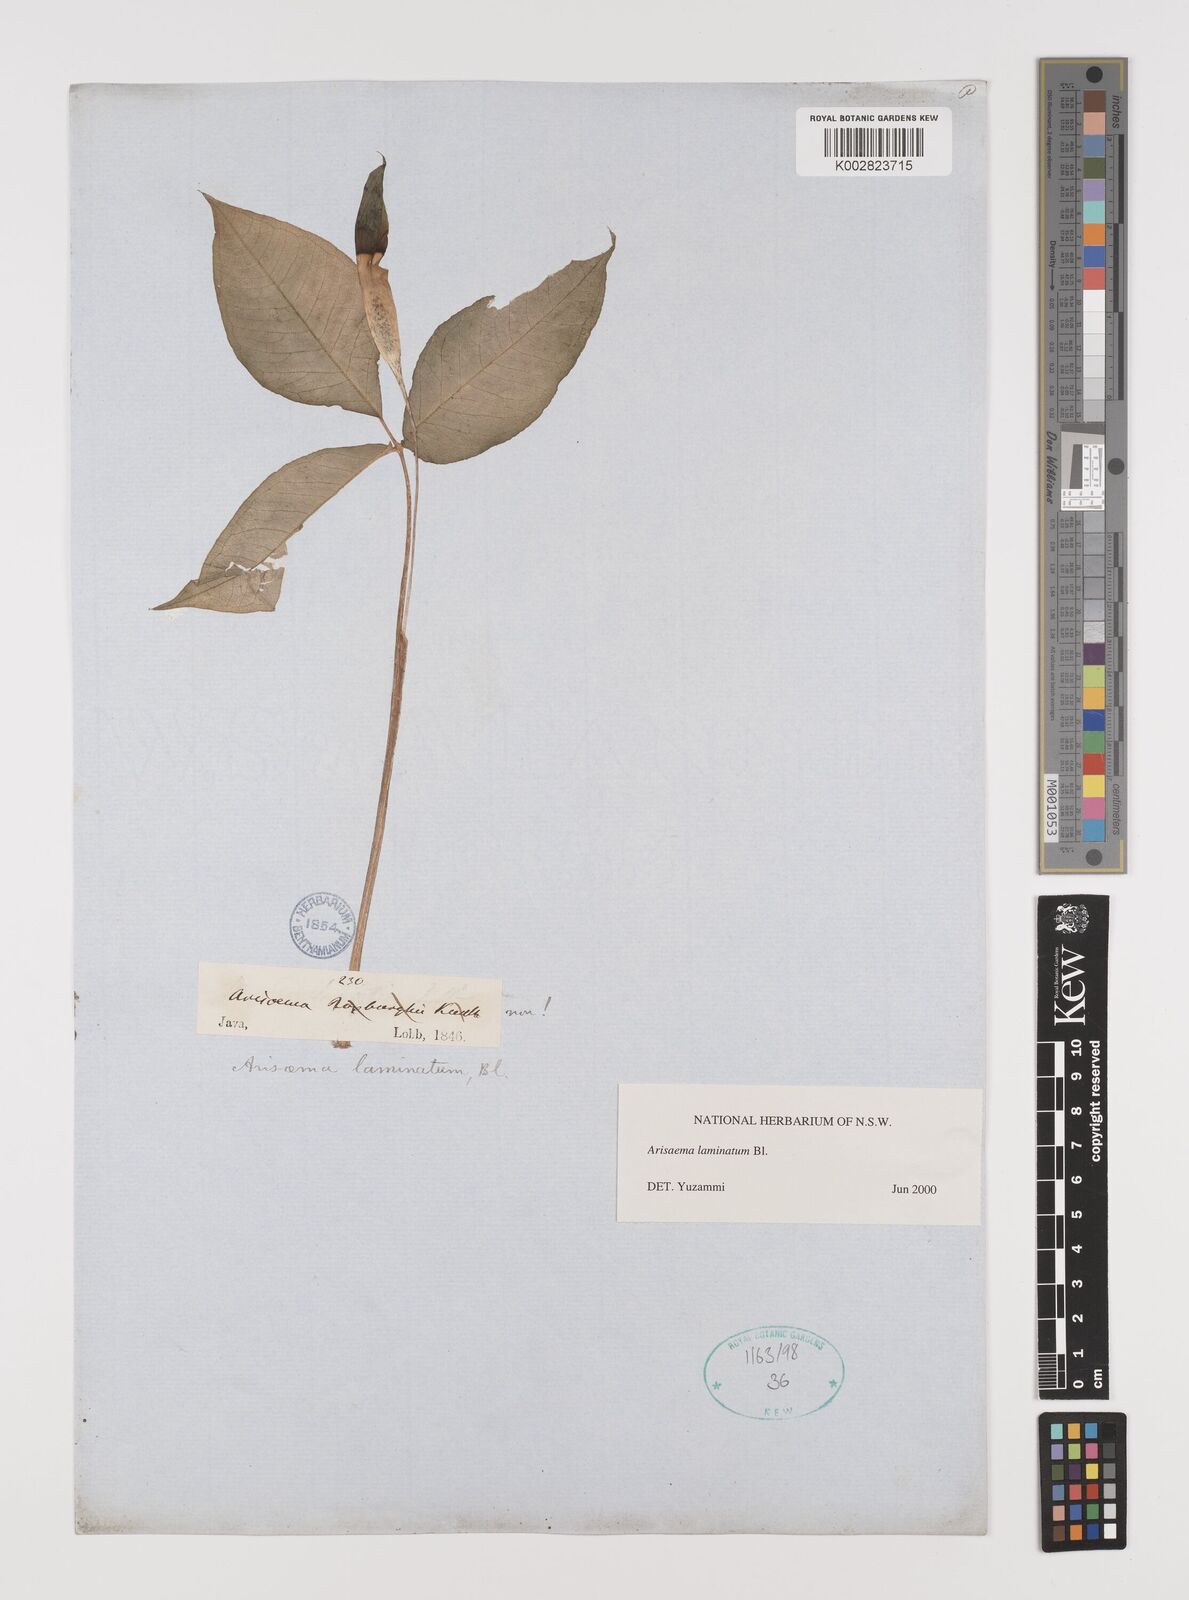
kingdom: Plantae
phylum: Tracheophyta
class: Liliopsida
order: Alismatales
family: Araceae
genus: Arisaema
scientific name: Arisaema laminatum
